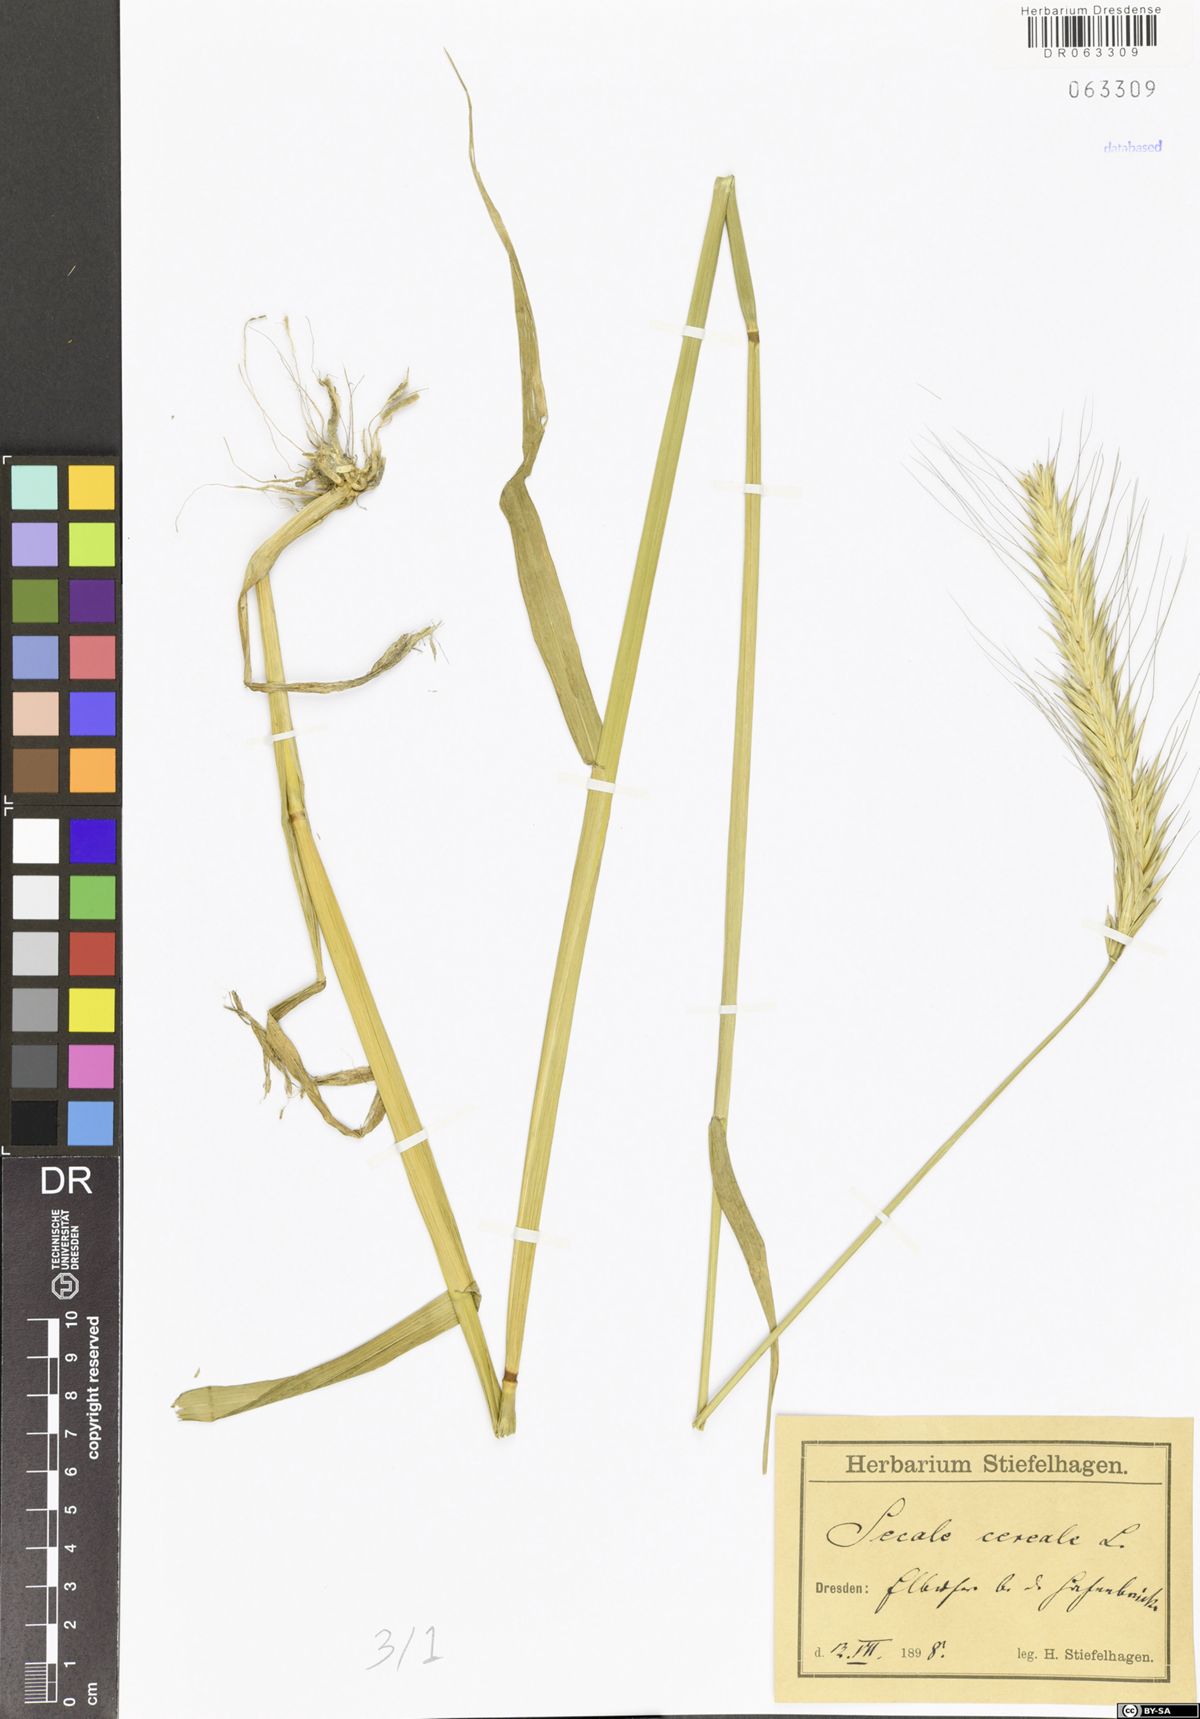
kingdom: Plantae
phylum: Tracheophyta
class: Liliopsida
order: Poales
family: Poaceae
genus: Secale
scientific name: Secale cereale
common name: Rye
